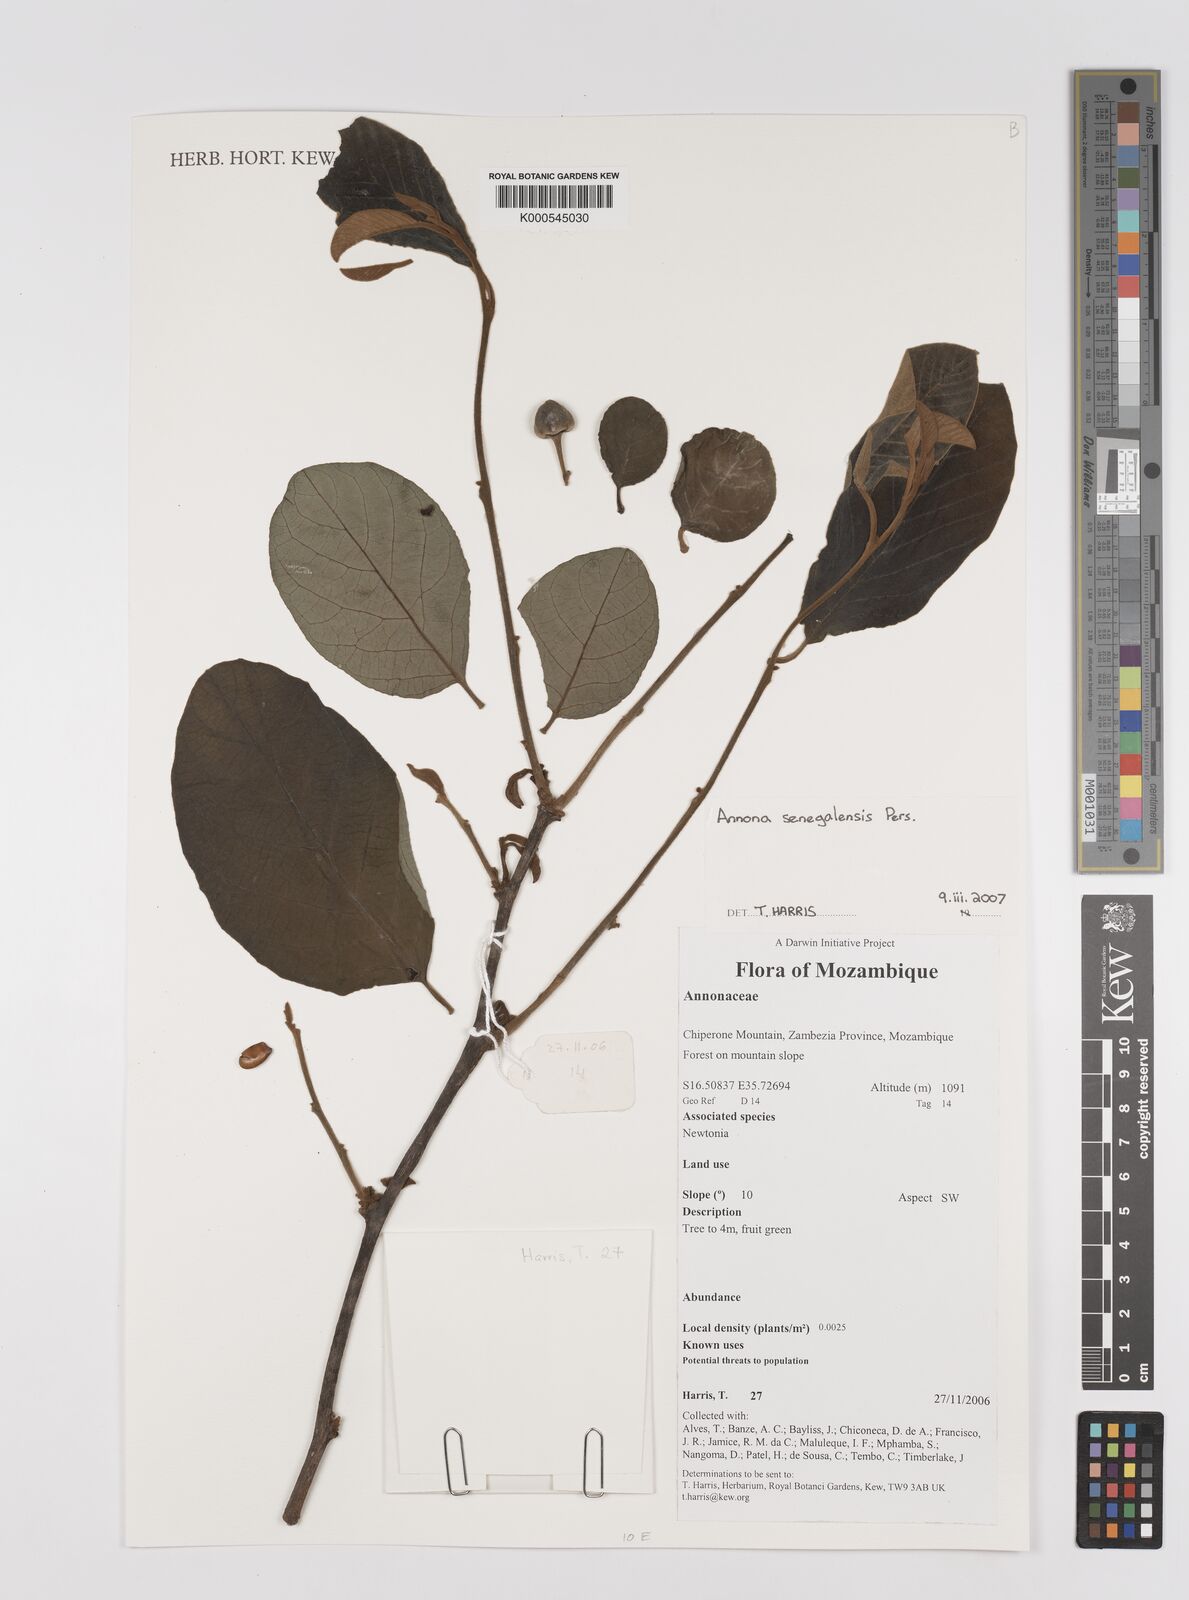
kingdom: Plantae
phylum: Tracheophyta
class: Magnoliopsida
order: Magnoliales
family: Annonaceae
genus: Annona
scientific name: Annona senegalensis
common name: Wild custard-apple
